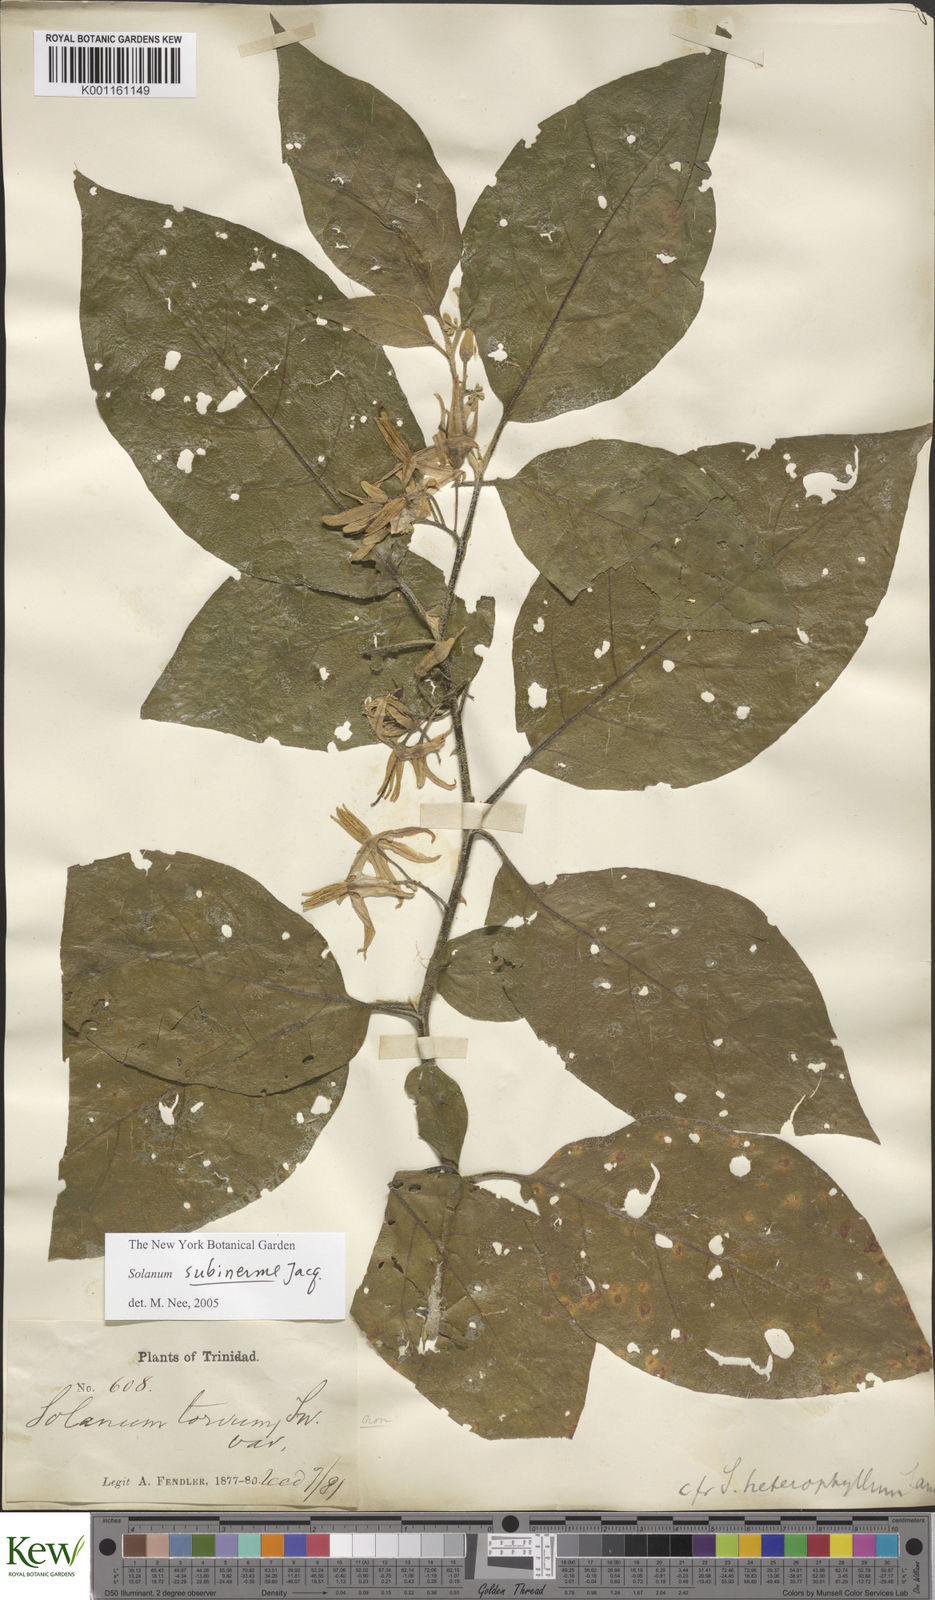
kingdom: Plantae
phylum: Tracheophyta
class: Magnoliopsida
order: Solanales
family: Solanaceae
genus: Solanum
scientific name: Solanum subinerme
